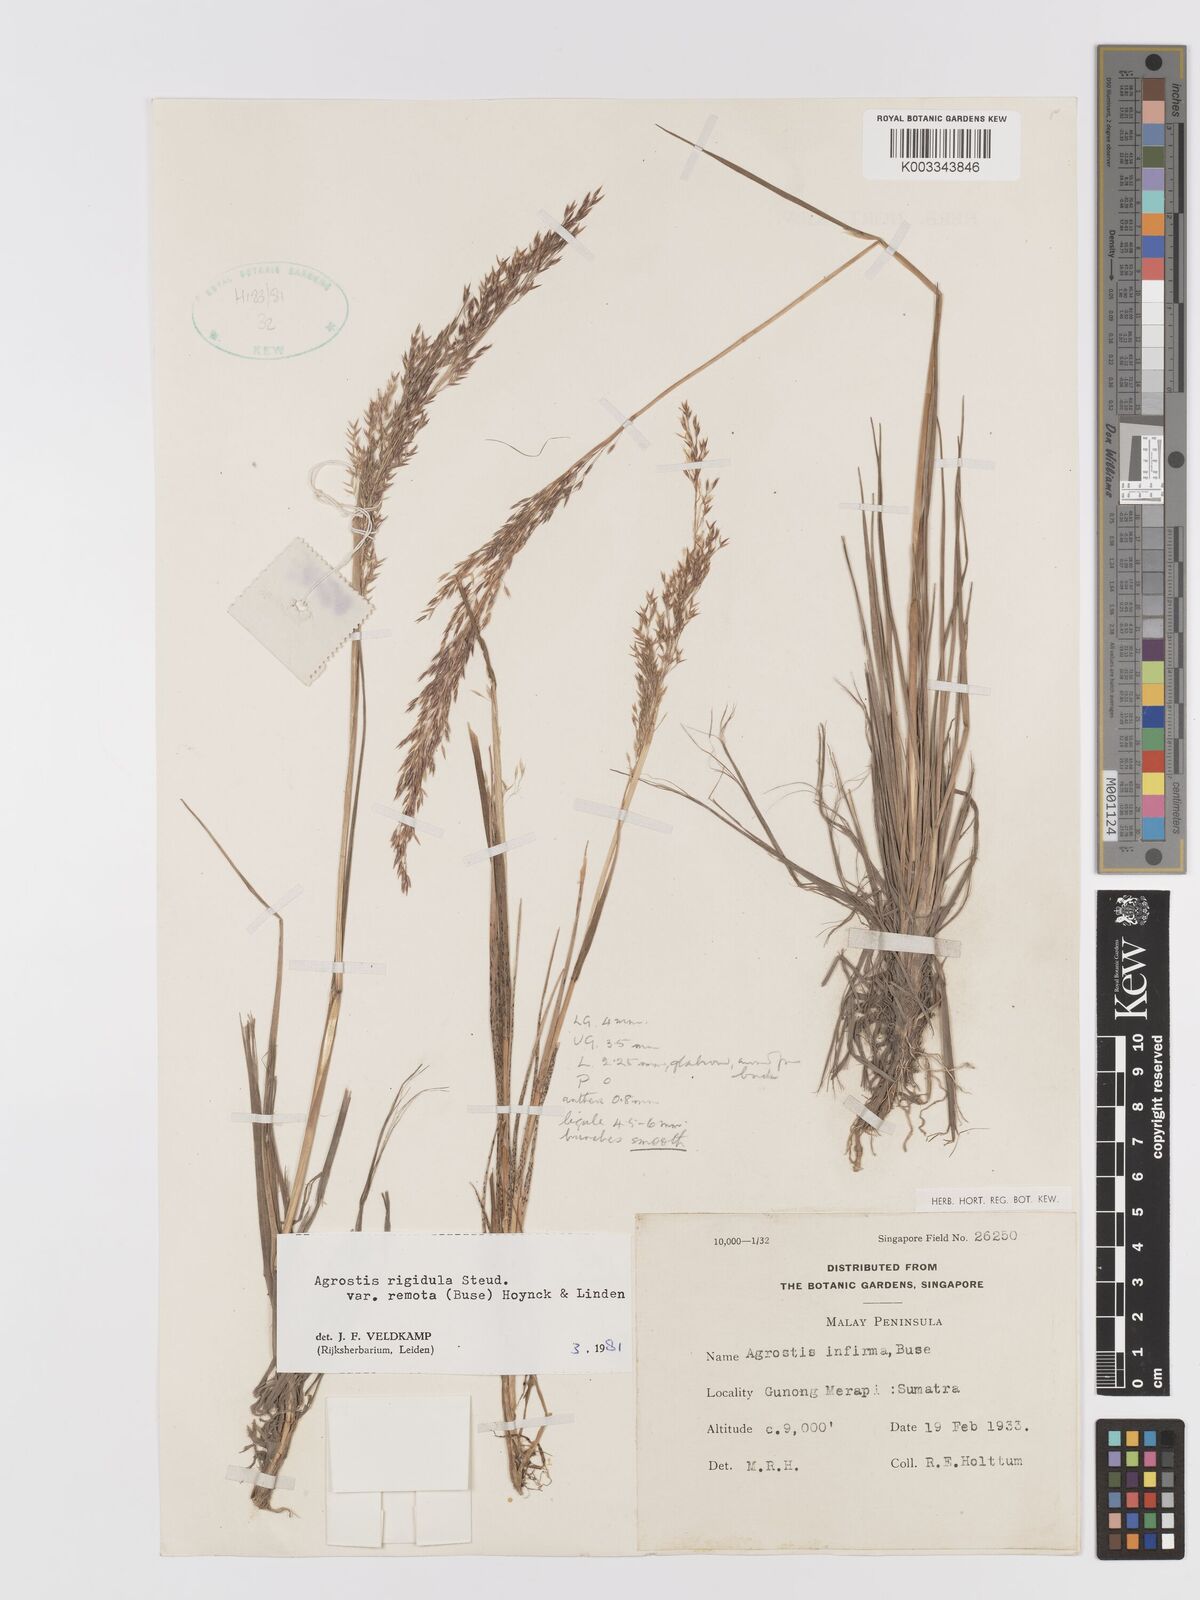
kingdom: Plantae
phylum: Tracheophyta
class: Liliopsida
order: Poales
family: Poaceae
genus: Agrostis
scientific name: Agrostis infirma
